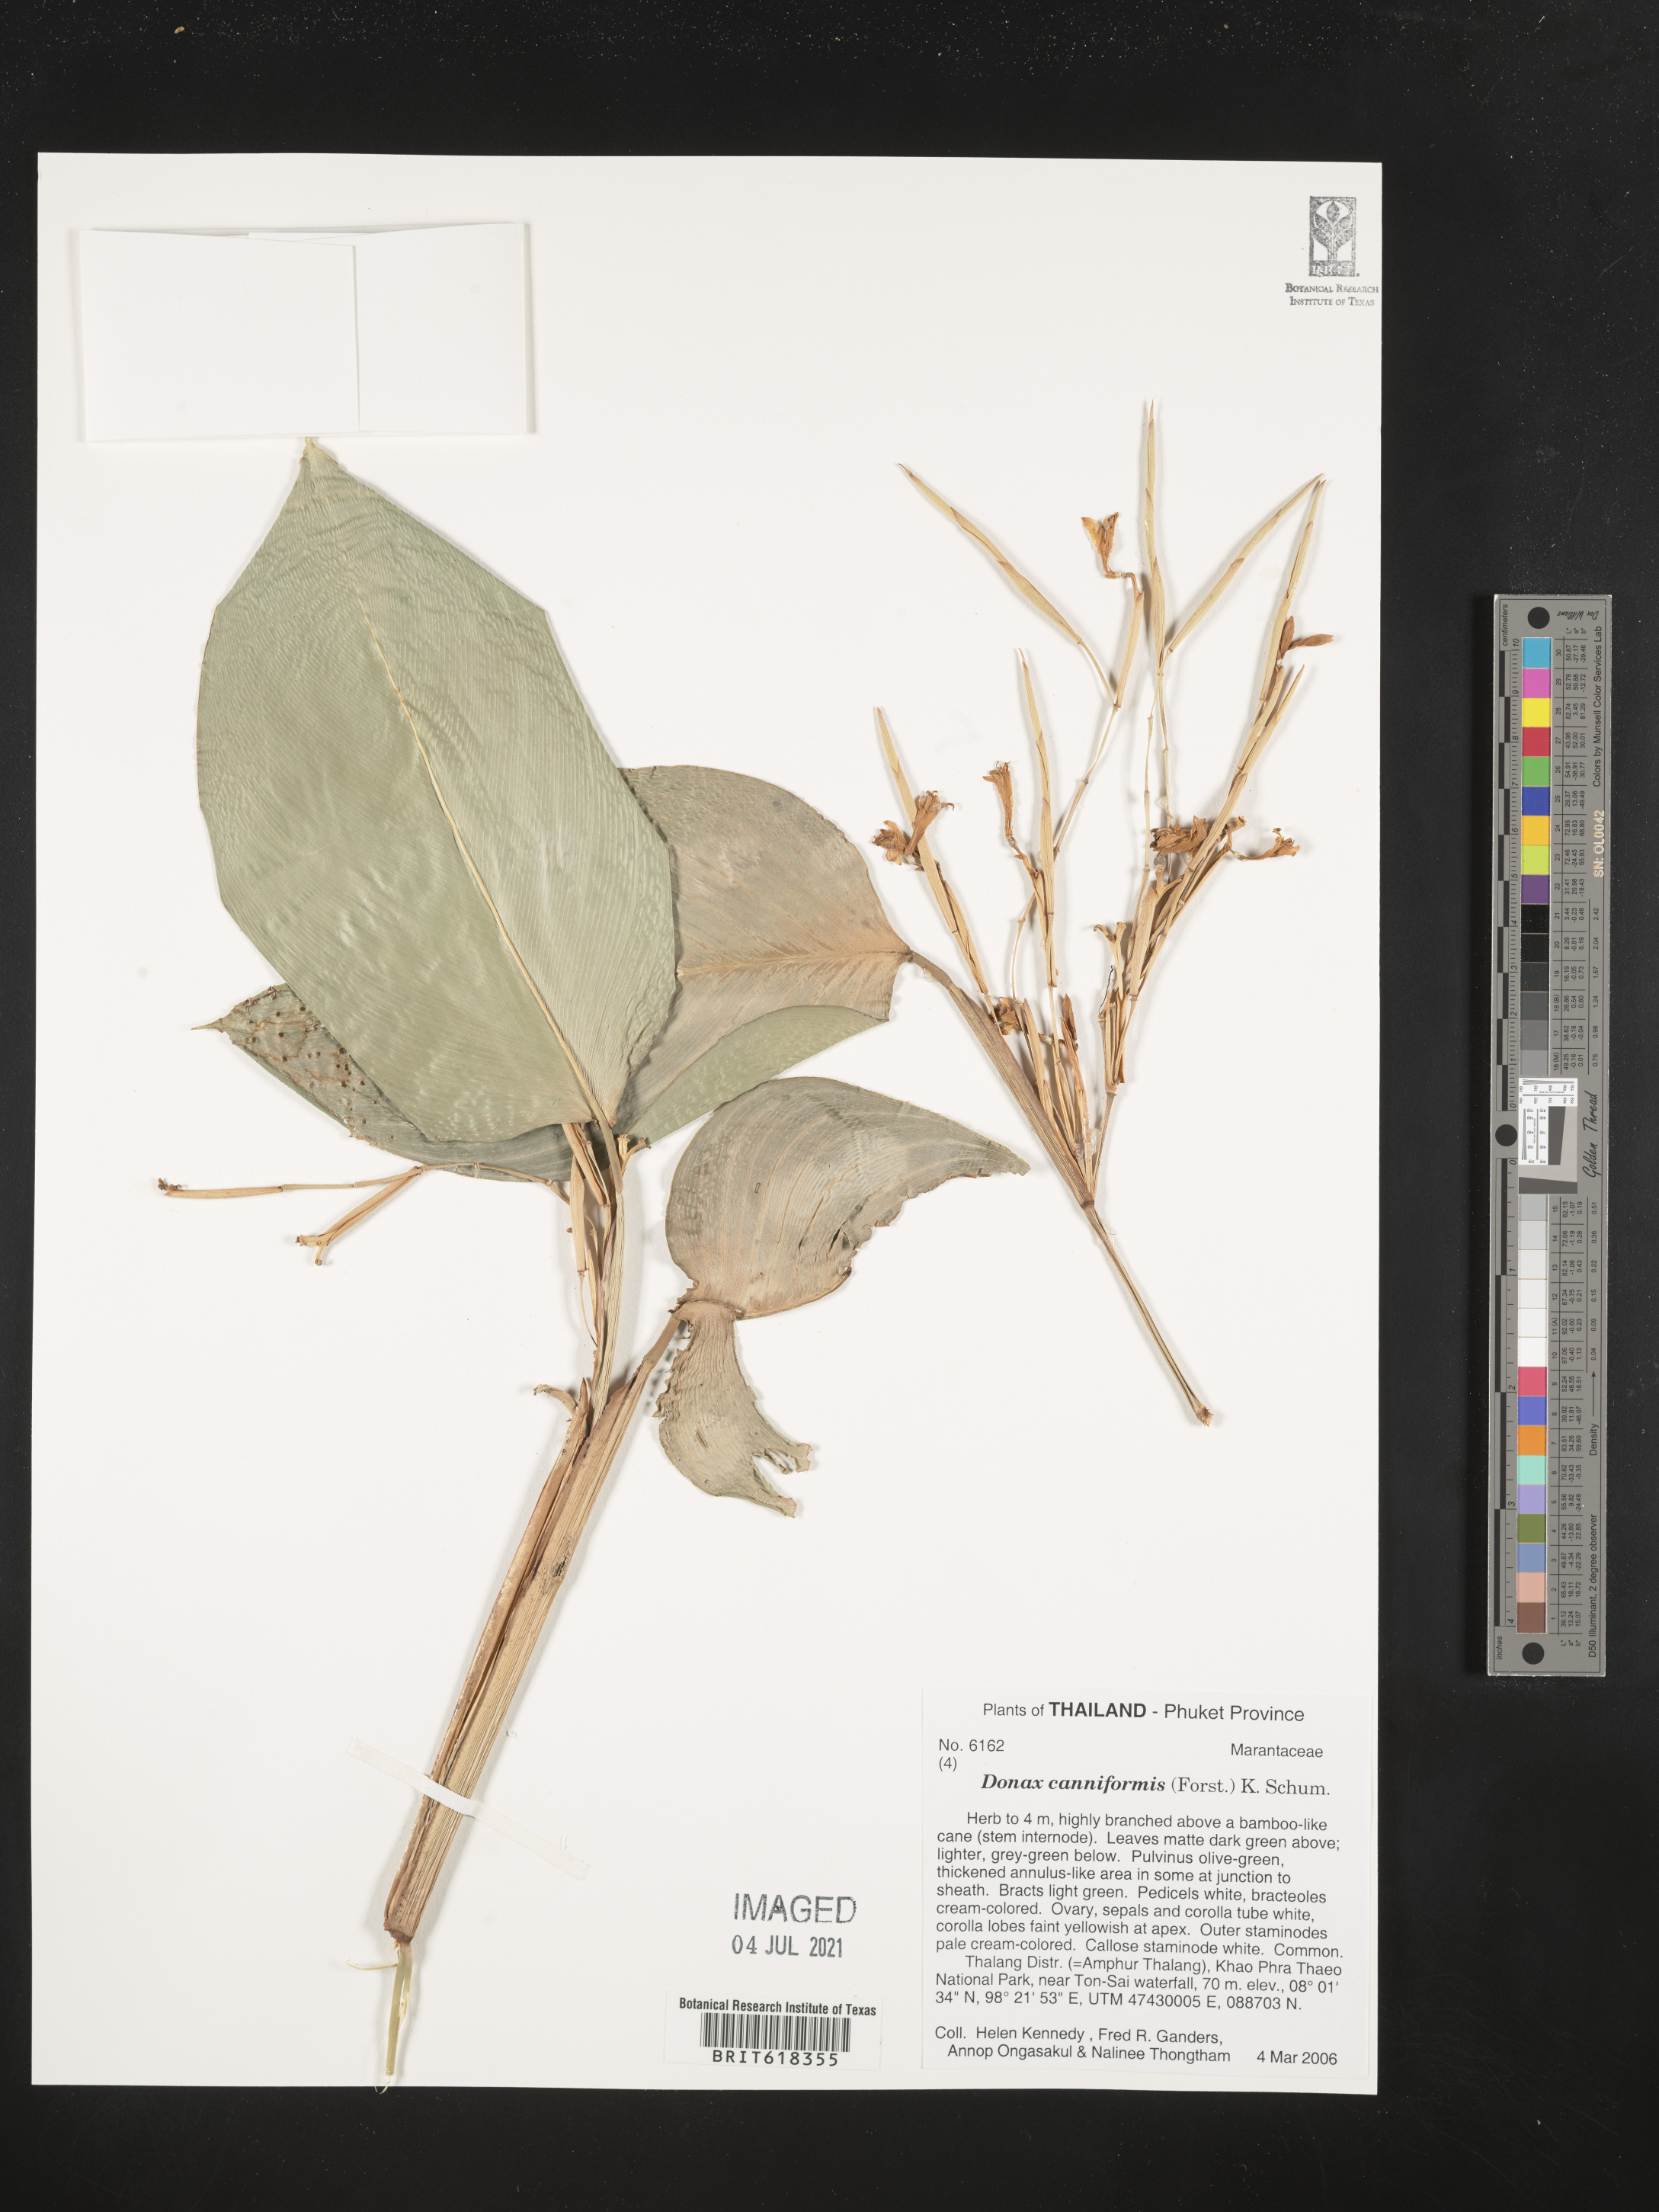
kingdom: Plantae
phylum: Tracheophyta
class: Liliopsida
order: Zingiberales
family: Marantaceae
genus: Donax
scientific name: Donax canniformis
